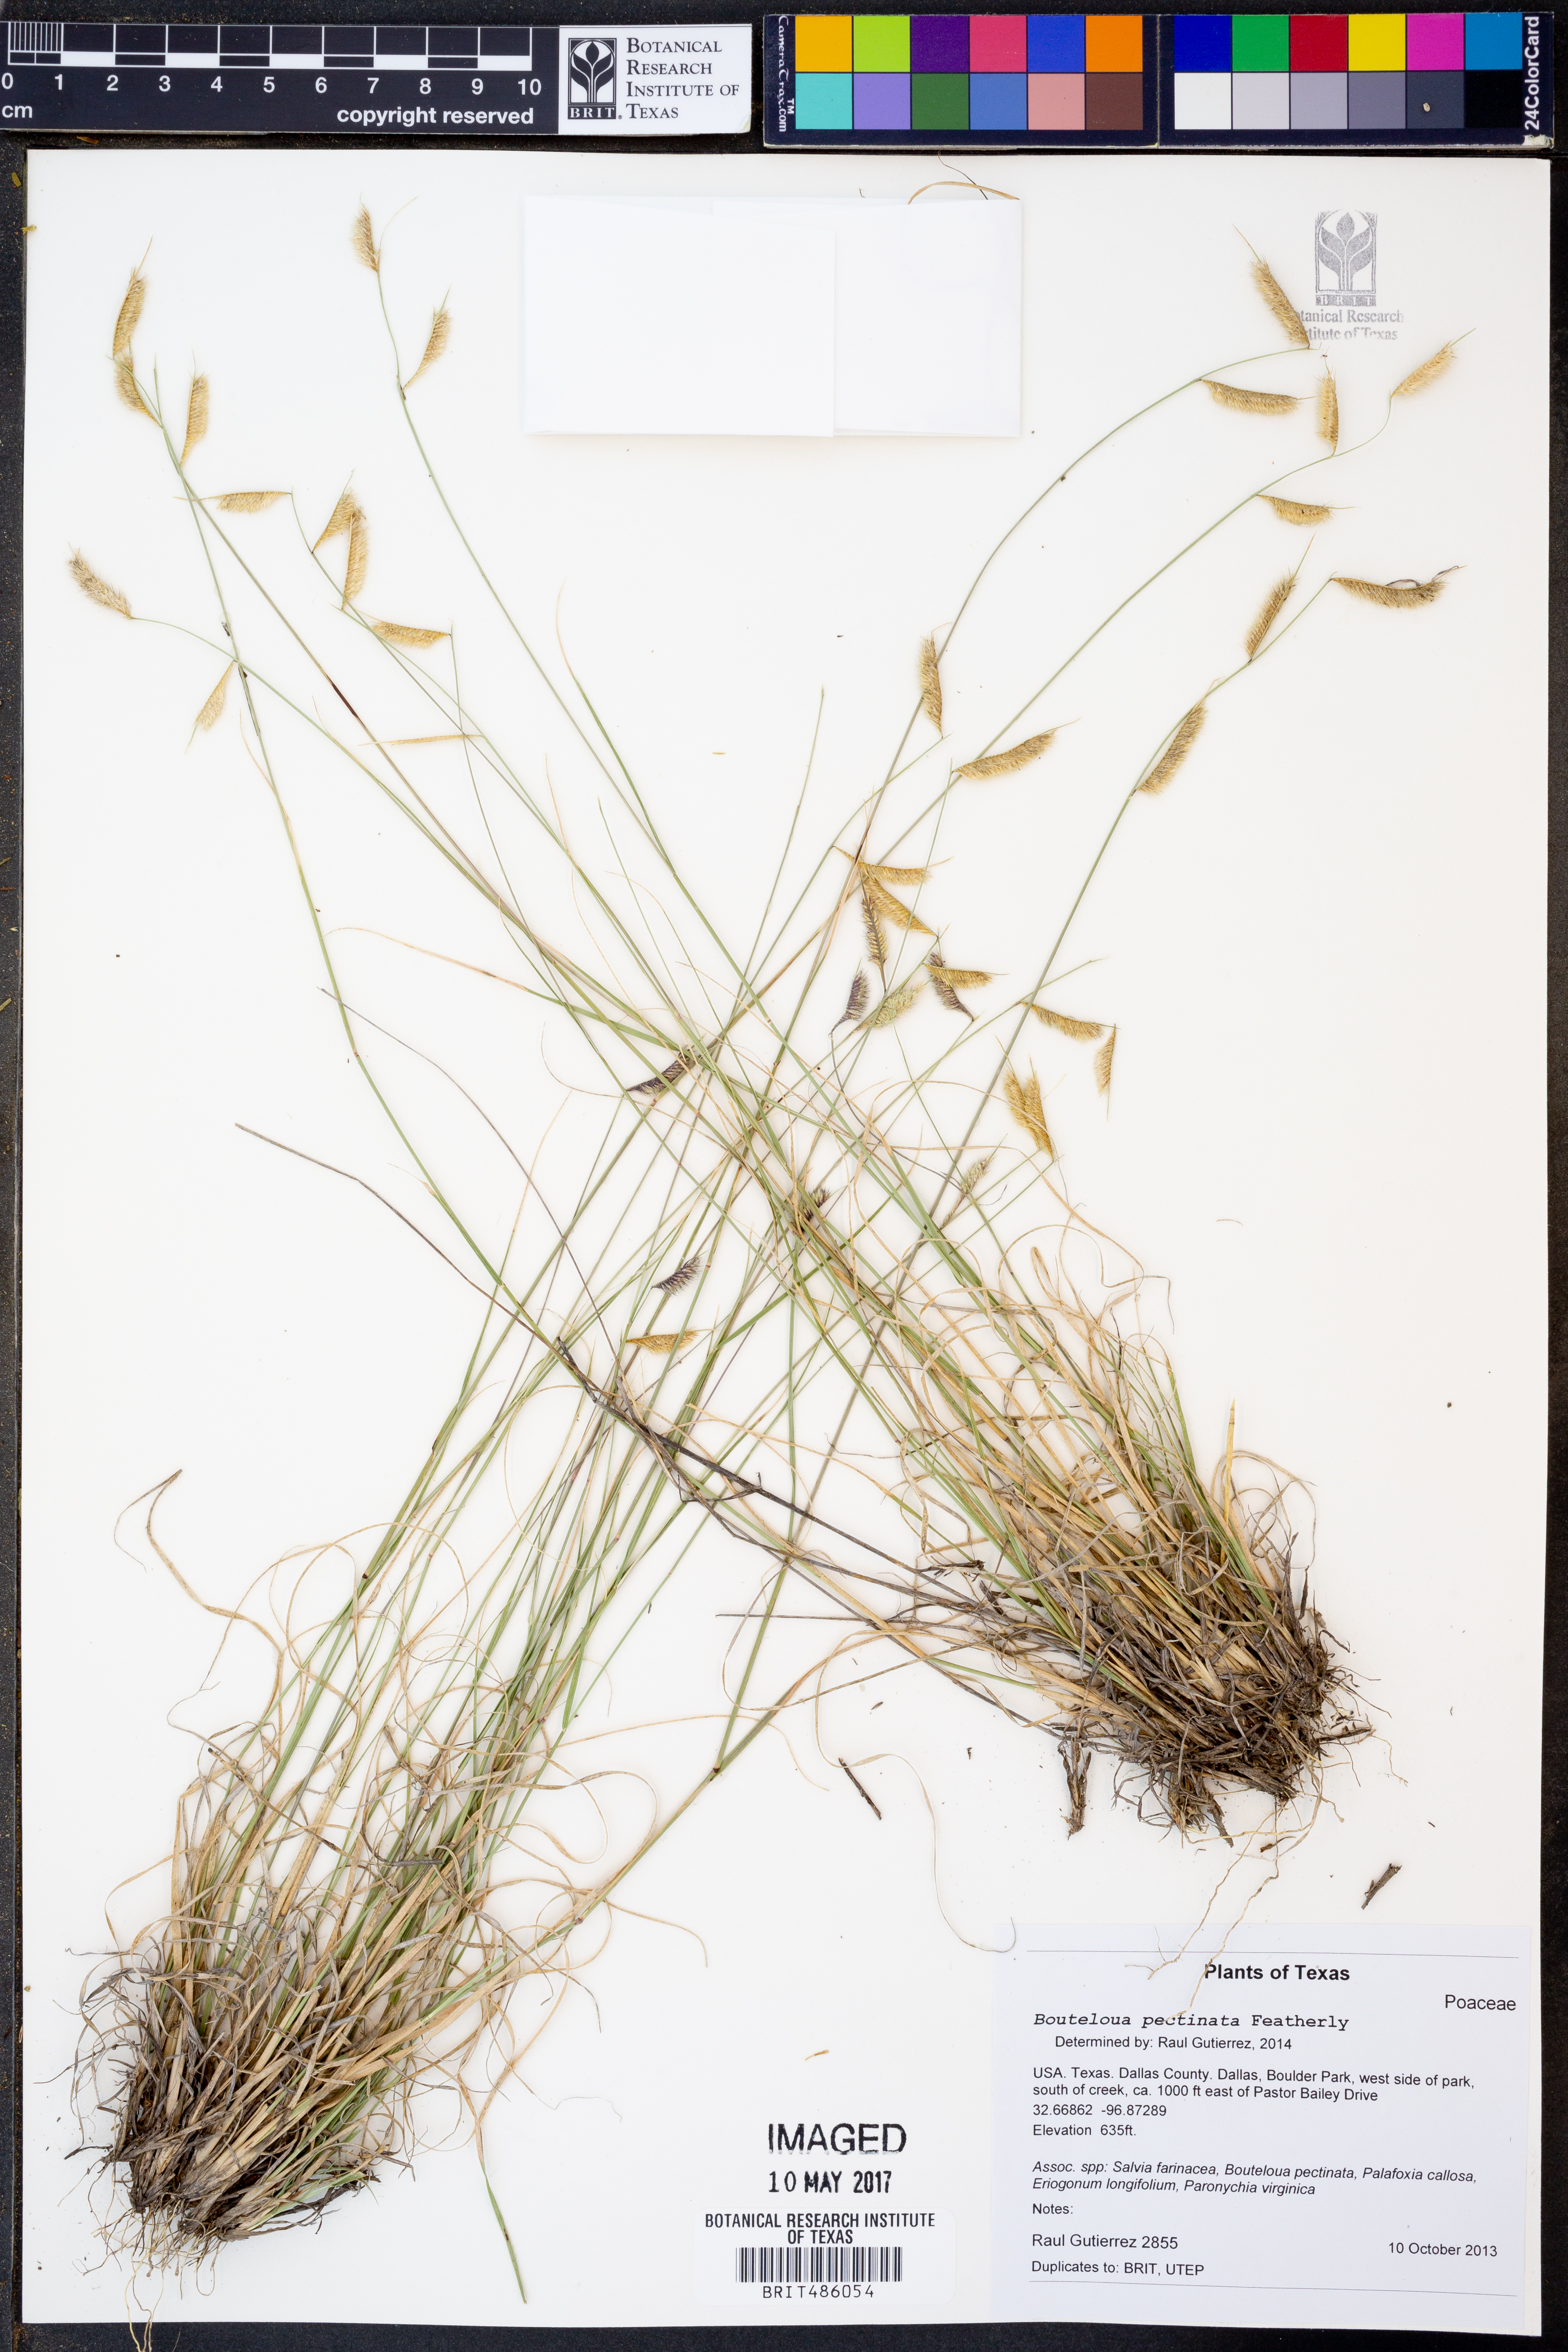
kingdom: Plantae
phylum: Tracheophyta
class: Liliopsida
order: Poales
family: Poaceae
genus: Bouteloua
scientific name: Bouteloua pectinata
